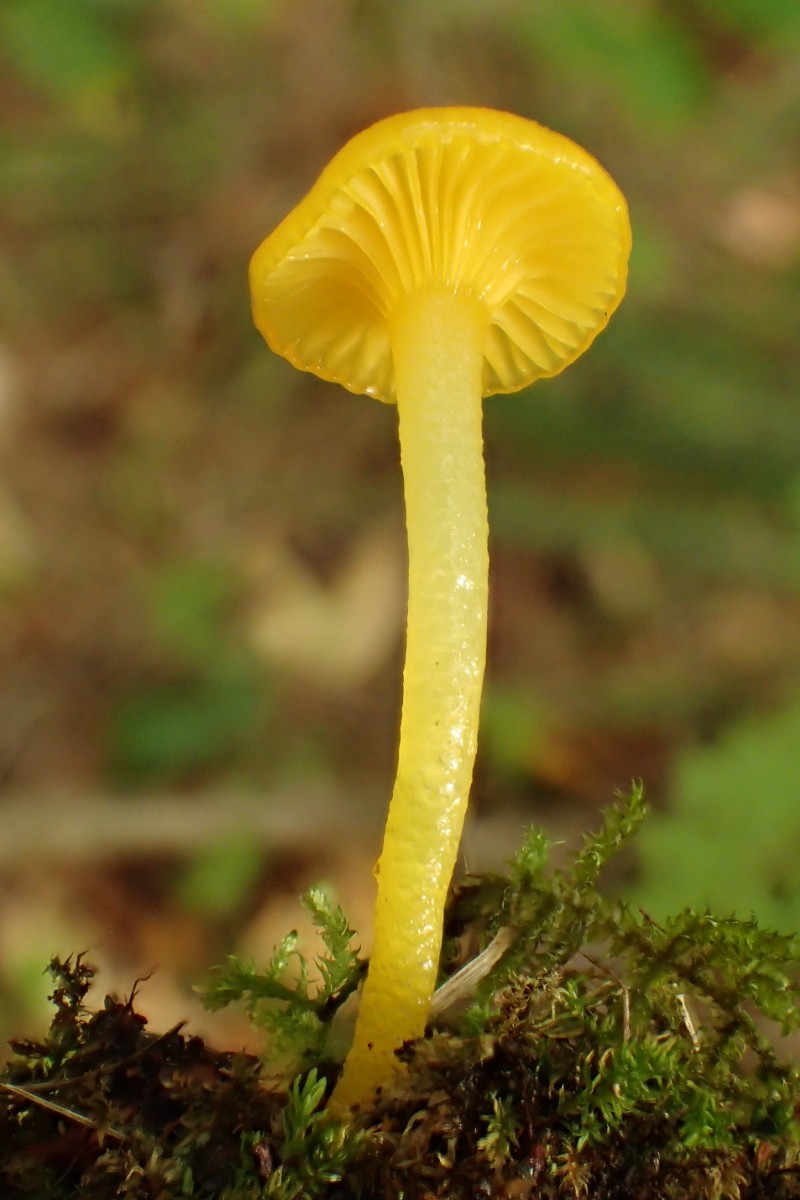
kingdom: Fungi
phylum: Basidiomycota
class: Agaricomycetes
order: Agaricales
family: Hygrophoraceae
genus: Gloioxanthomyces
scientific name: Gloioxanthomyces vitellinus
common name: kromgul vokshat
